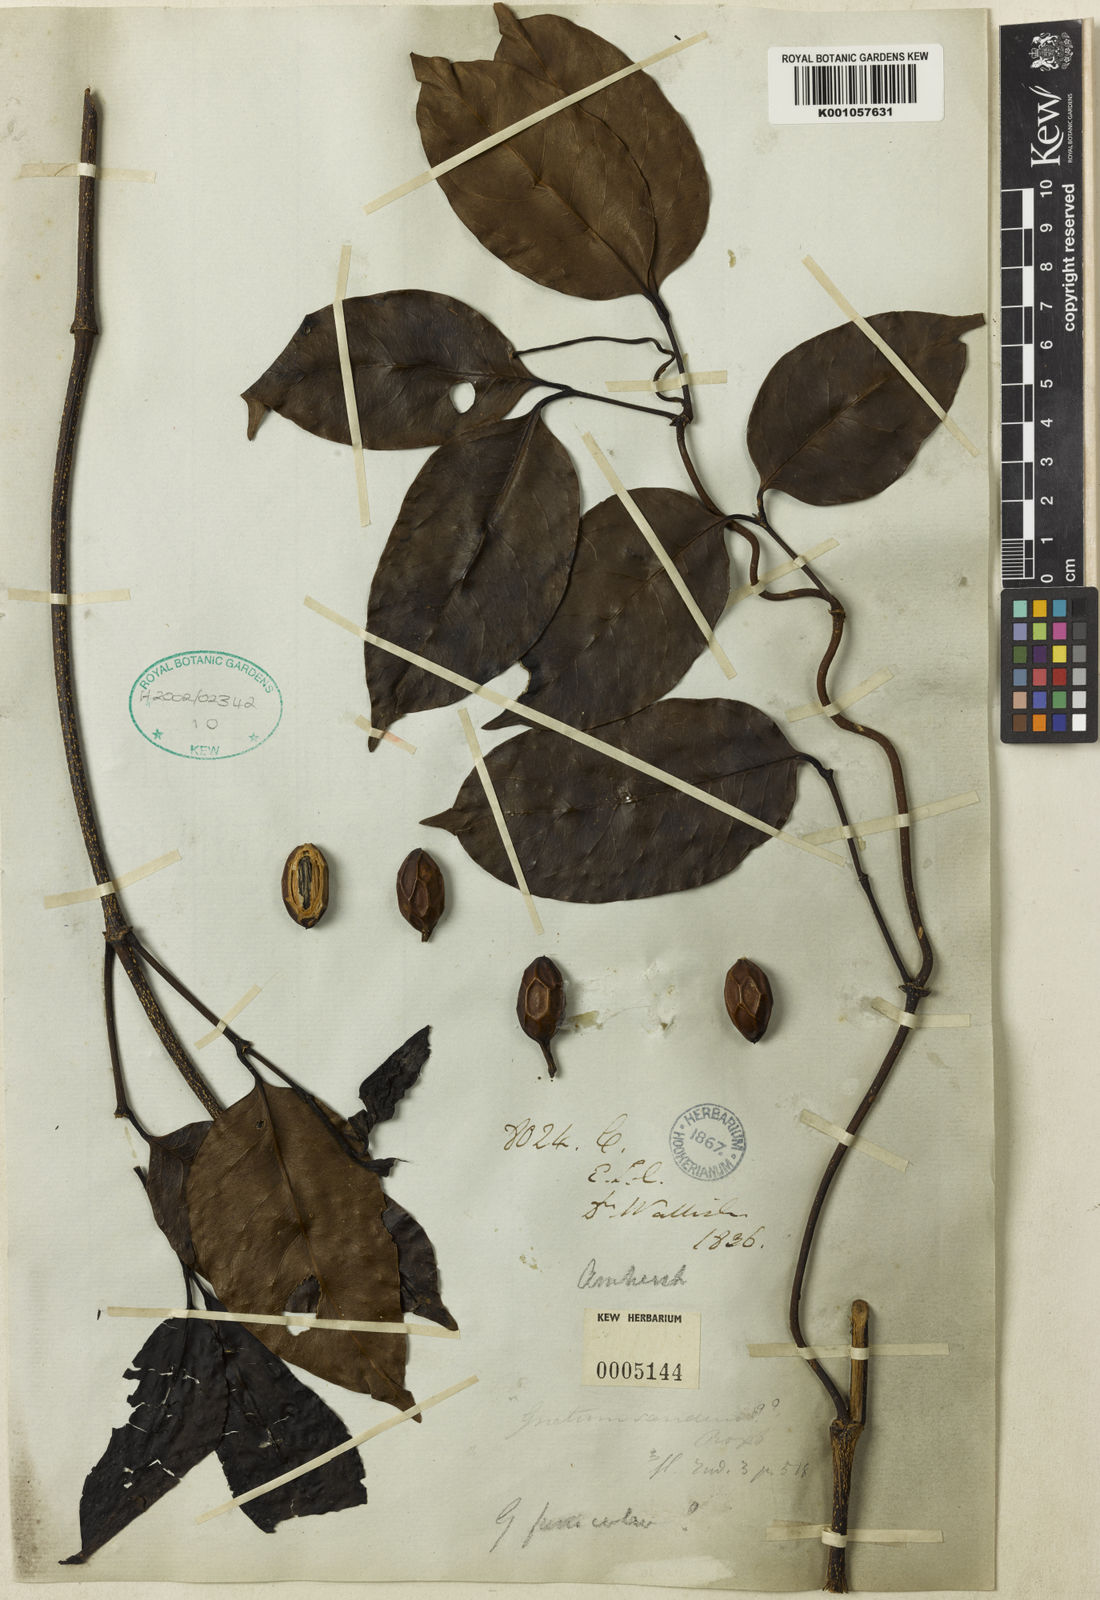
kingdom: Plantae
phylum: Tracheophyta
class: Gnetopsida
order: Gnetales
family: Gnetaceae
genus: Gnetum
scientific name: Gnetum edule
